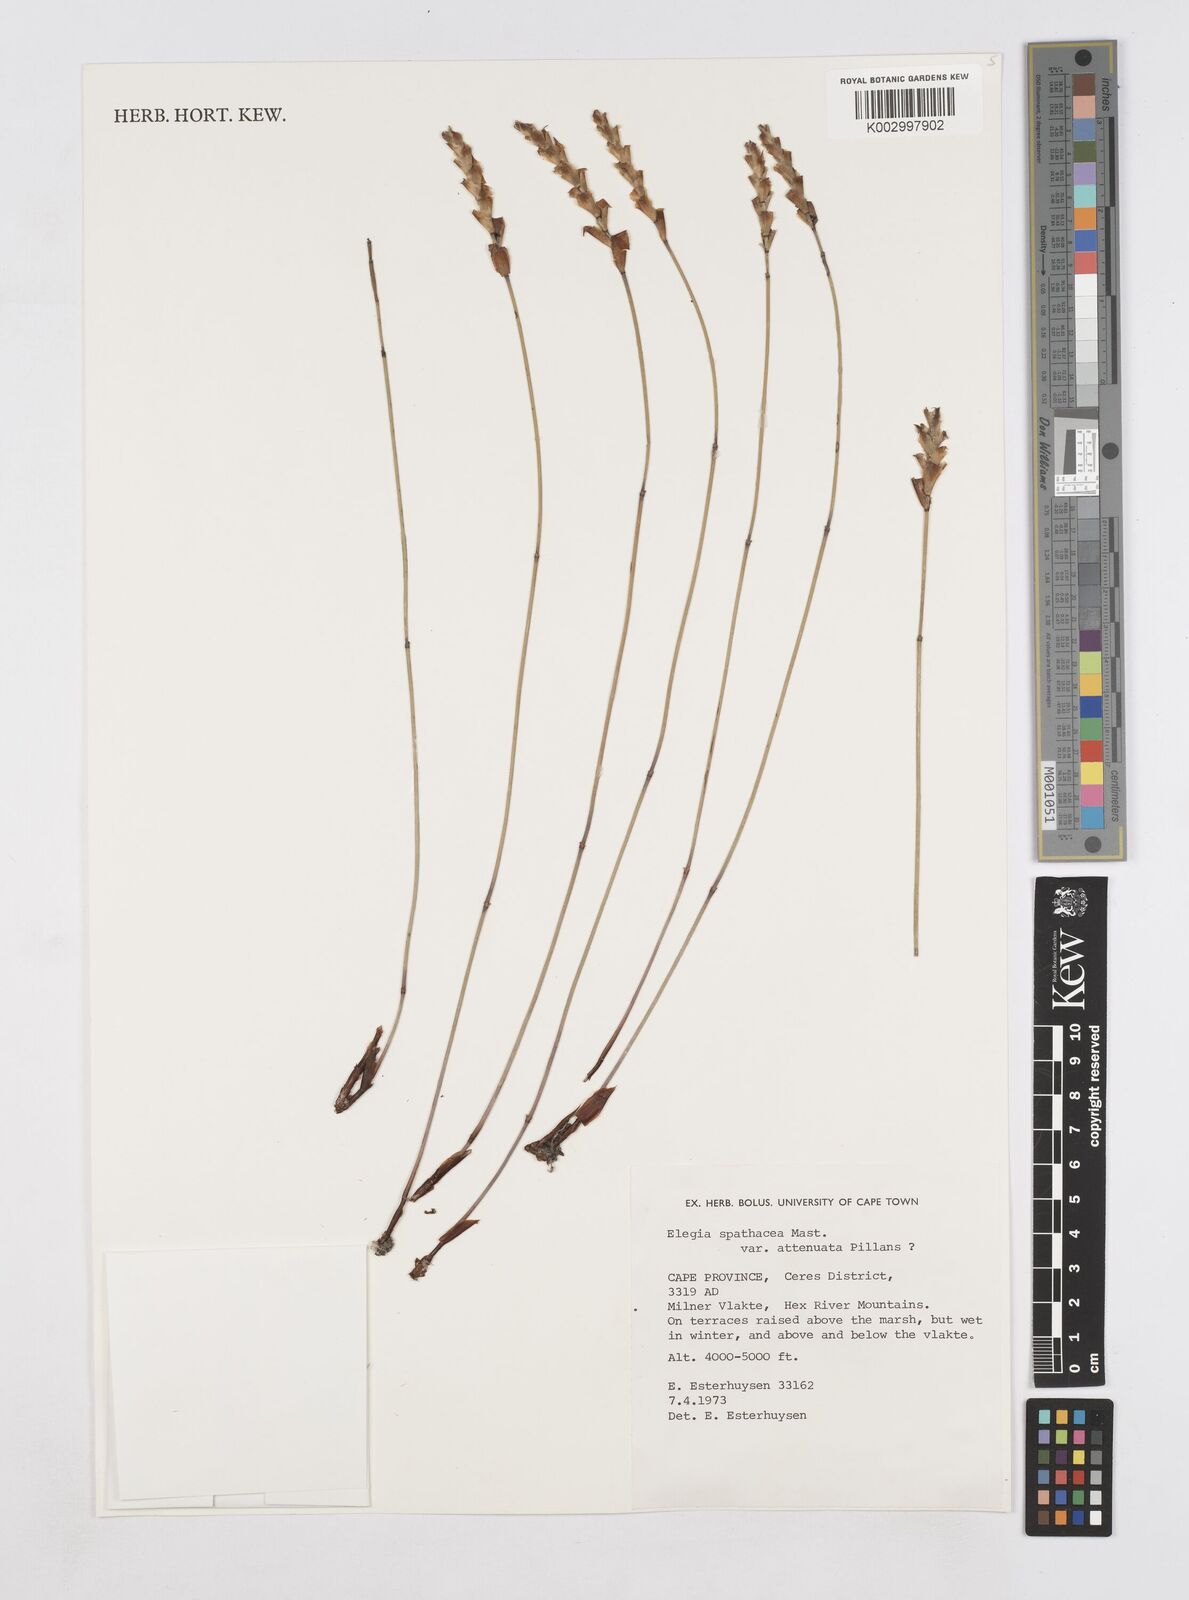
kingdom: Plantae
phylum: Tracheophyta
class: Liliopsida
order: Poales
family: Restionaceae
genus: Elegia
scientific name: Elegia rigida
